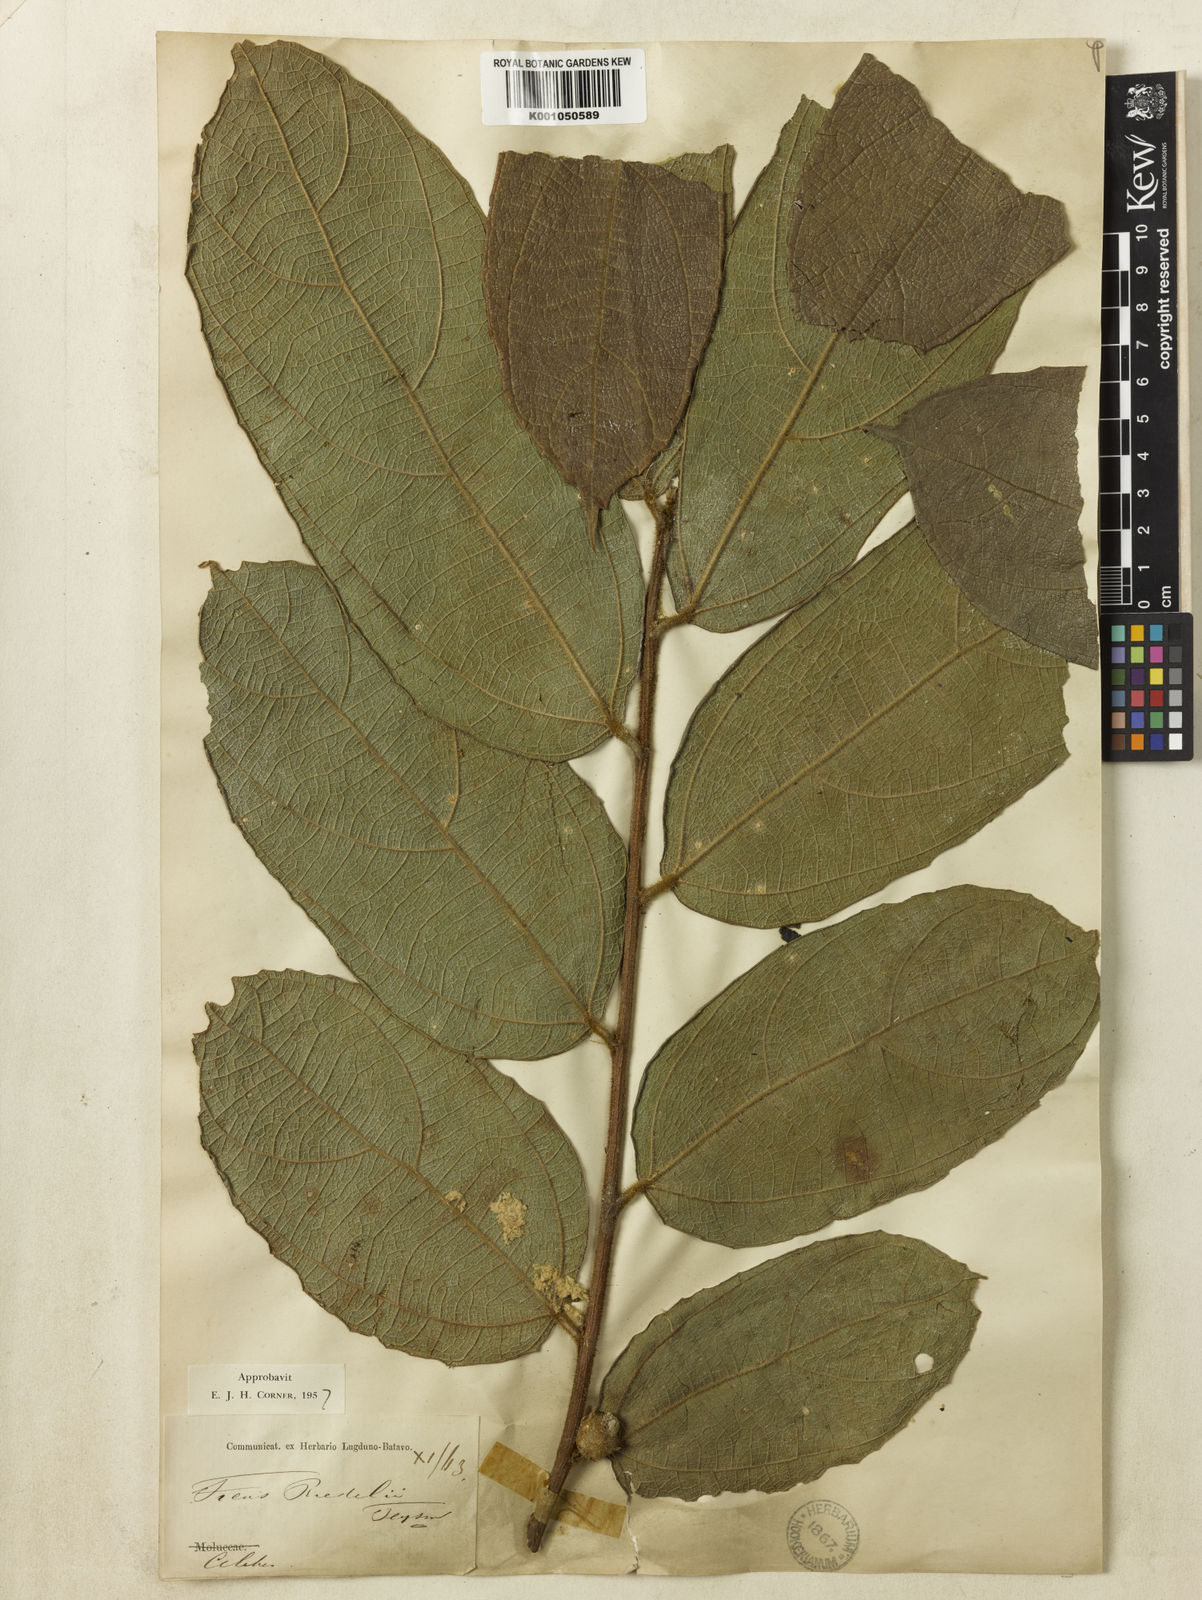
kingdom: Plantae
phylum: Tracheophyta
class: Magnoliopsida
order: Rosales
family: Moraceae
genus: Ficus
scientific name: Ficus riedelii
